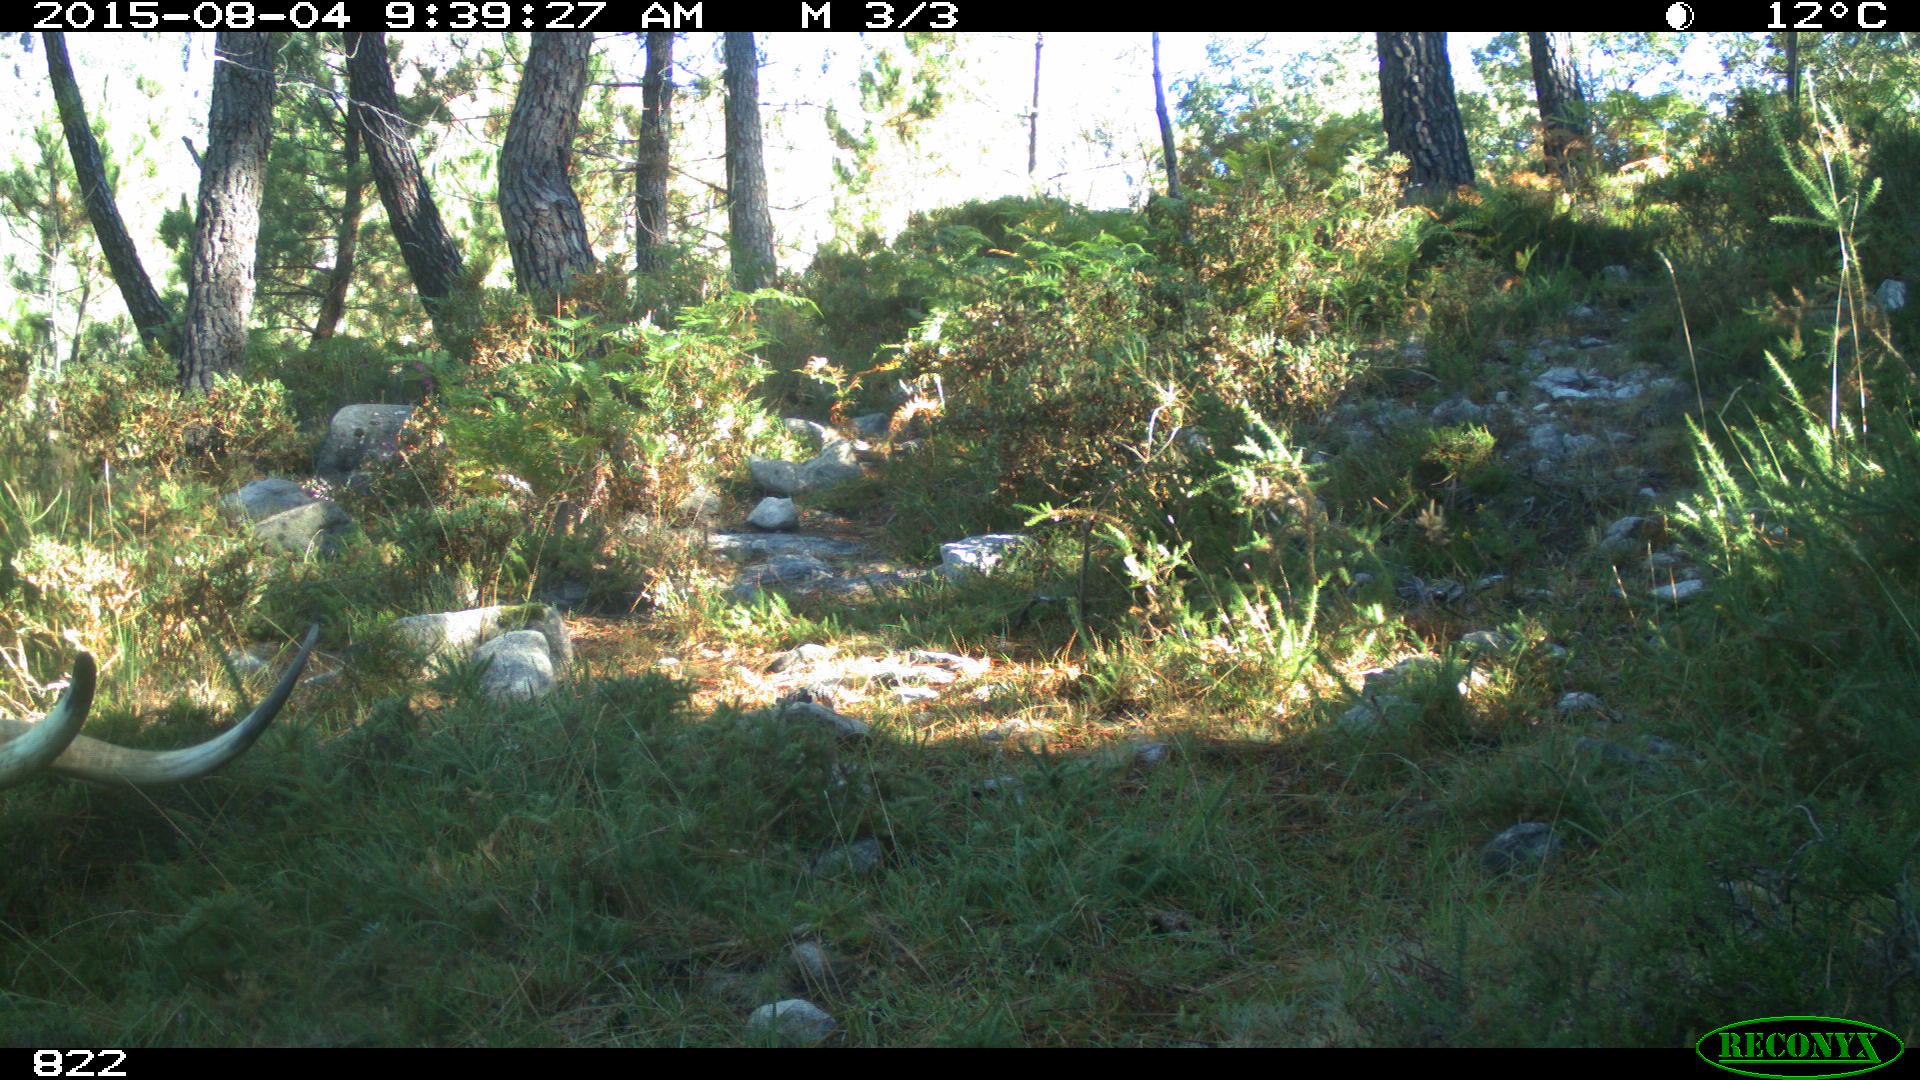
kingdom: Animalia
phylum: Chordata
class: Mammalia
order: Artiodactyla
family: Bovidae
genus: Bos
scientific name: Bos taurus
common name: Domesticated cattle
